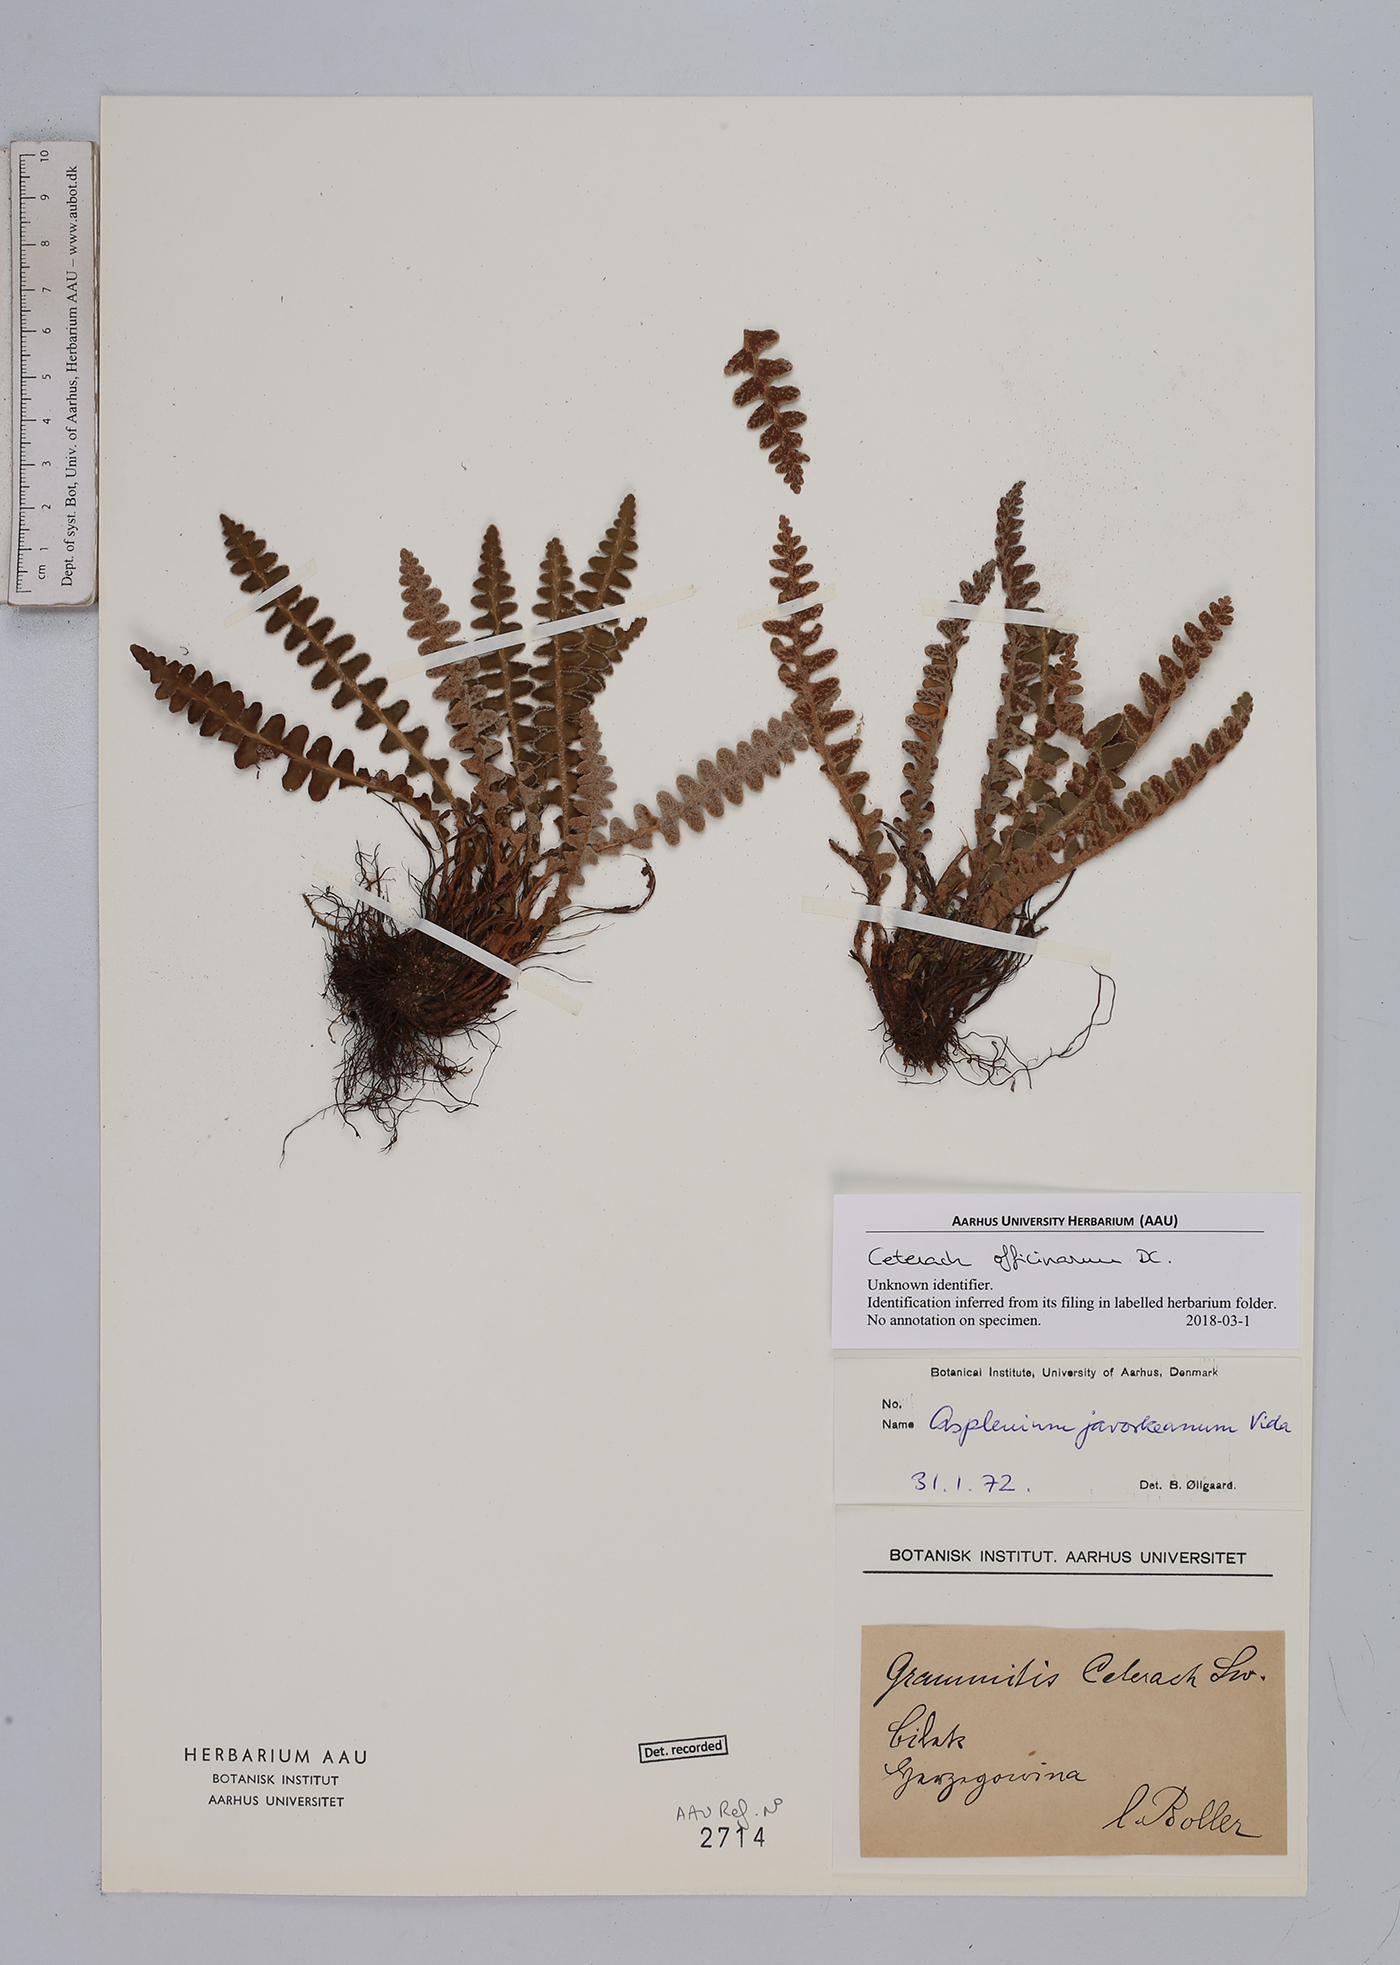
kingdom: Plantae
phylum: Tracheophyta
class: Polypodiopsida
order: Polypodiales
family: Aspleniaceae
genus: Asplenium
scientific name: Asplenium ceterach
